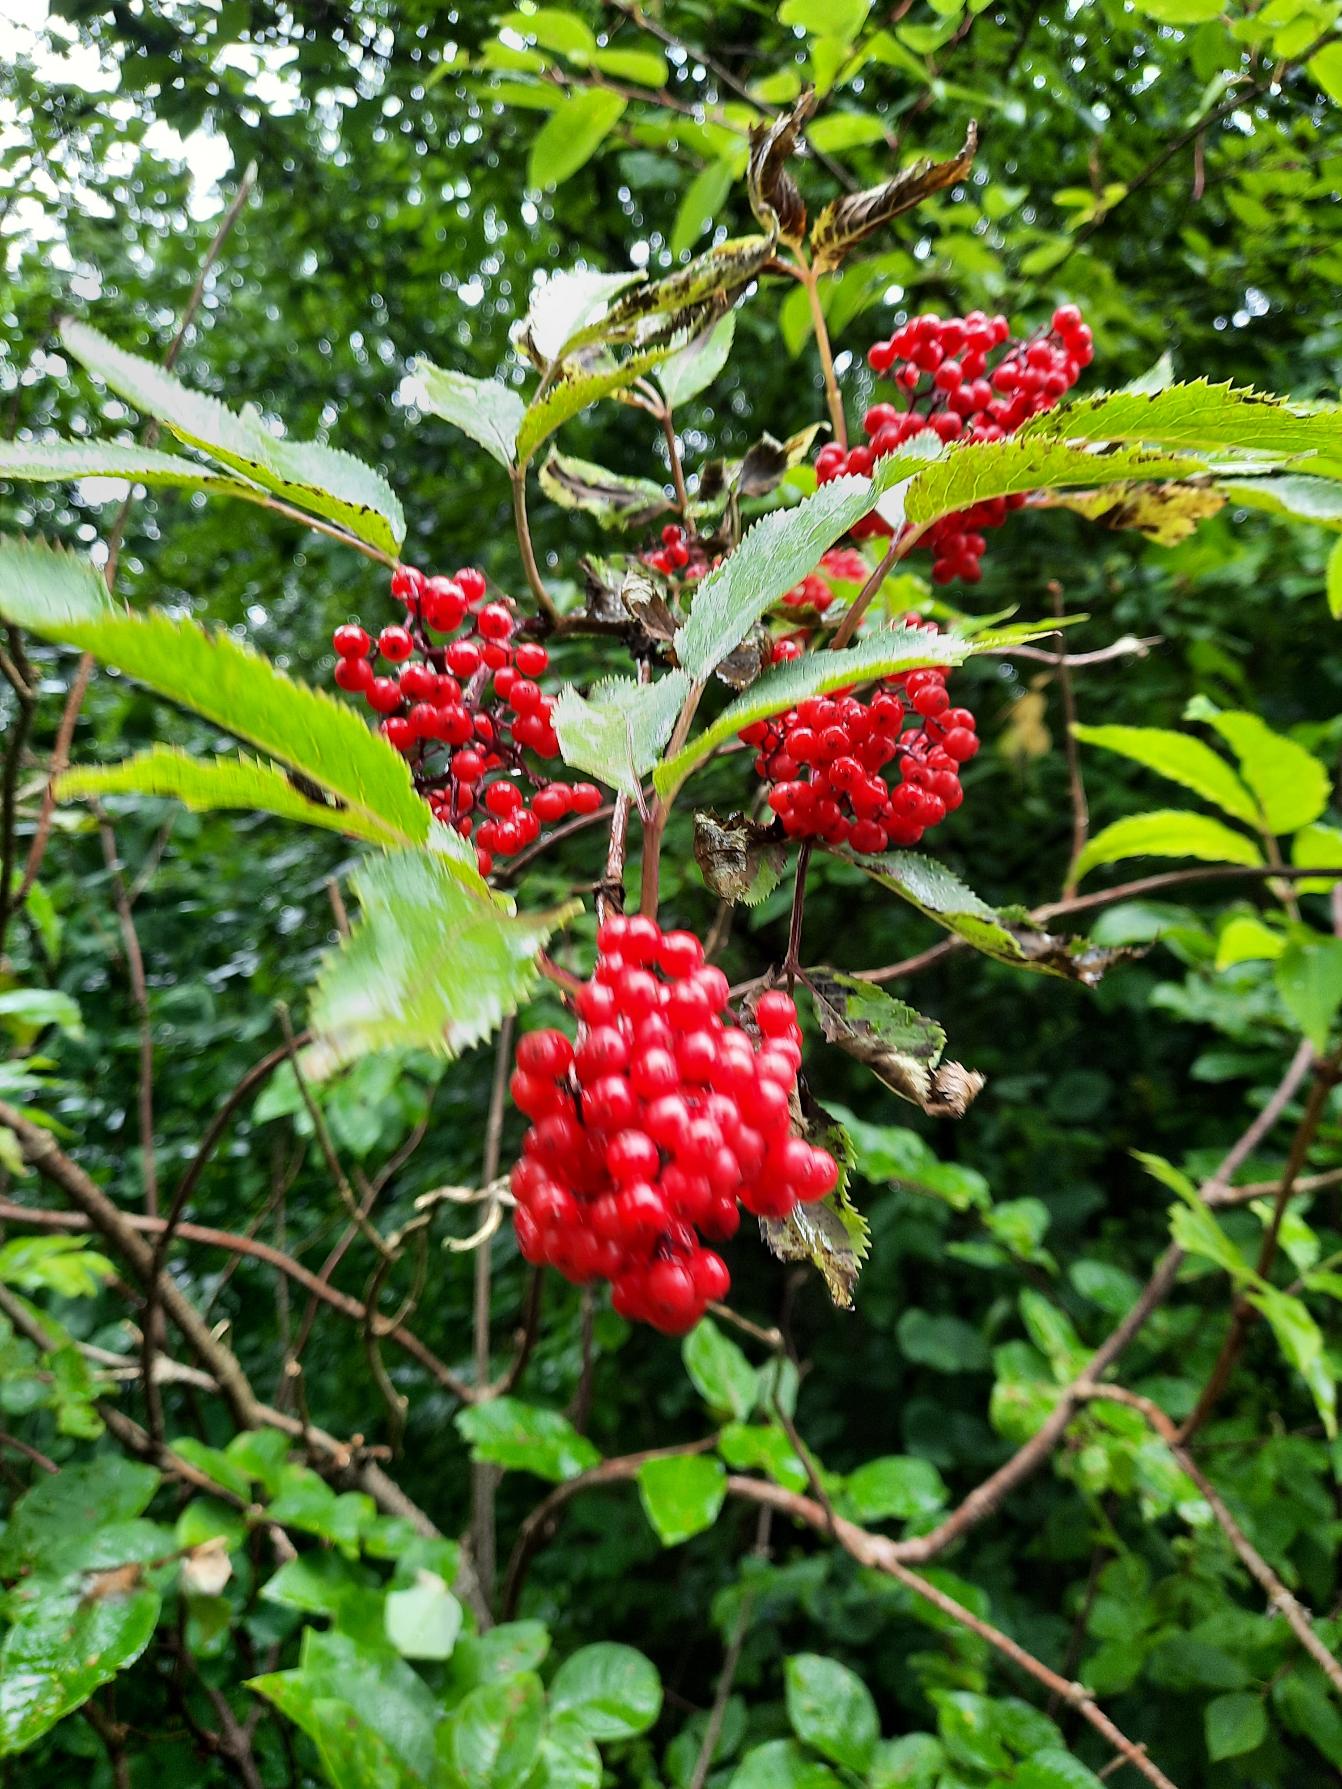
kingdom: Plantae
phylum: Tracheophyta
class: Magnoliopsida
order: Dipsacales
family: Viburnaceae
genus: Sambucus
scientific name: Sambucus racemosa
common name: Drue-hyld
